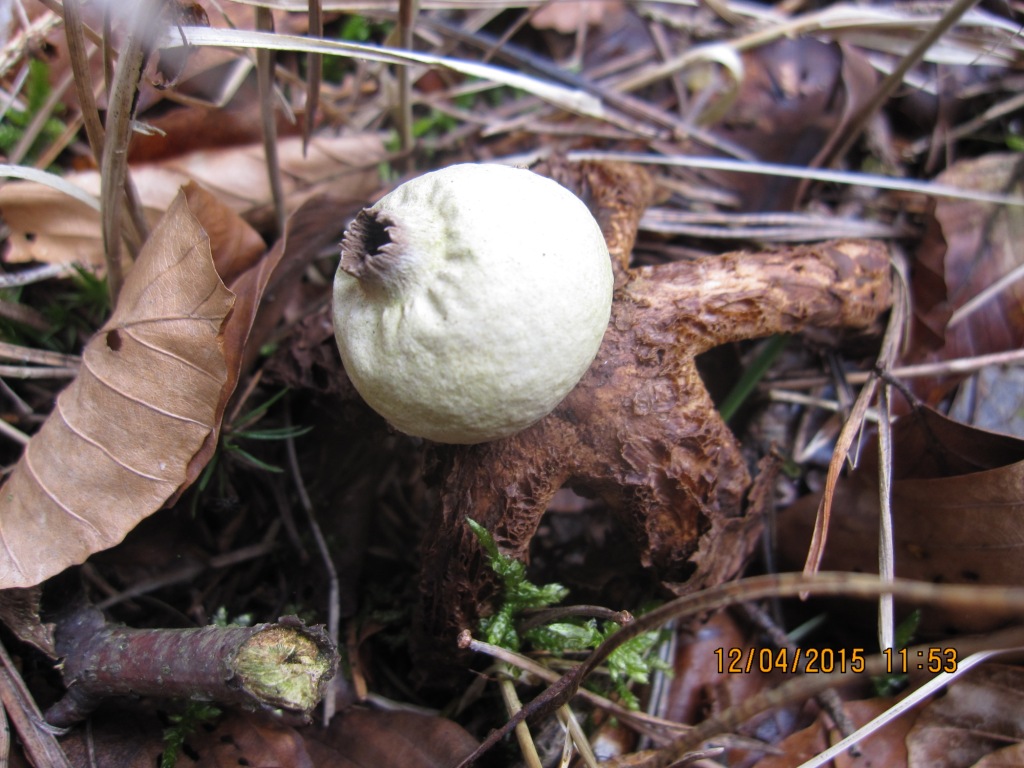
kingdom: Fungi
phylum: Basidiomycota
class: Agaricomycetes
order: Geastrales
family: Geastraceae
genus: Geastrum
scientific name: Geastrum
